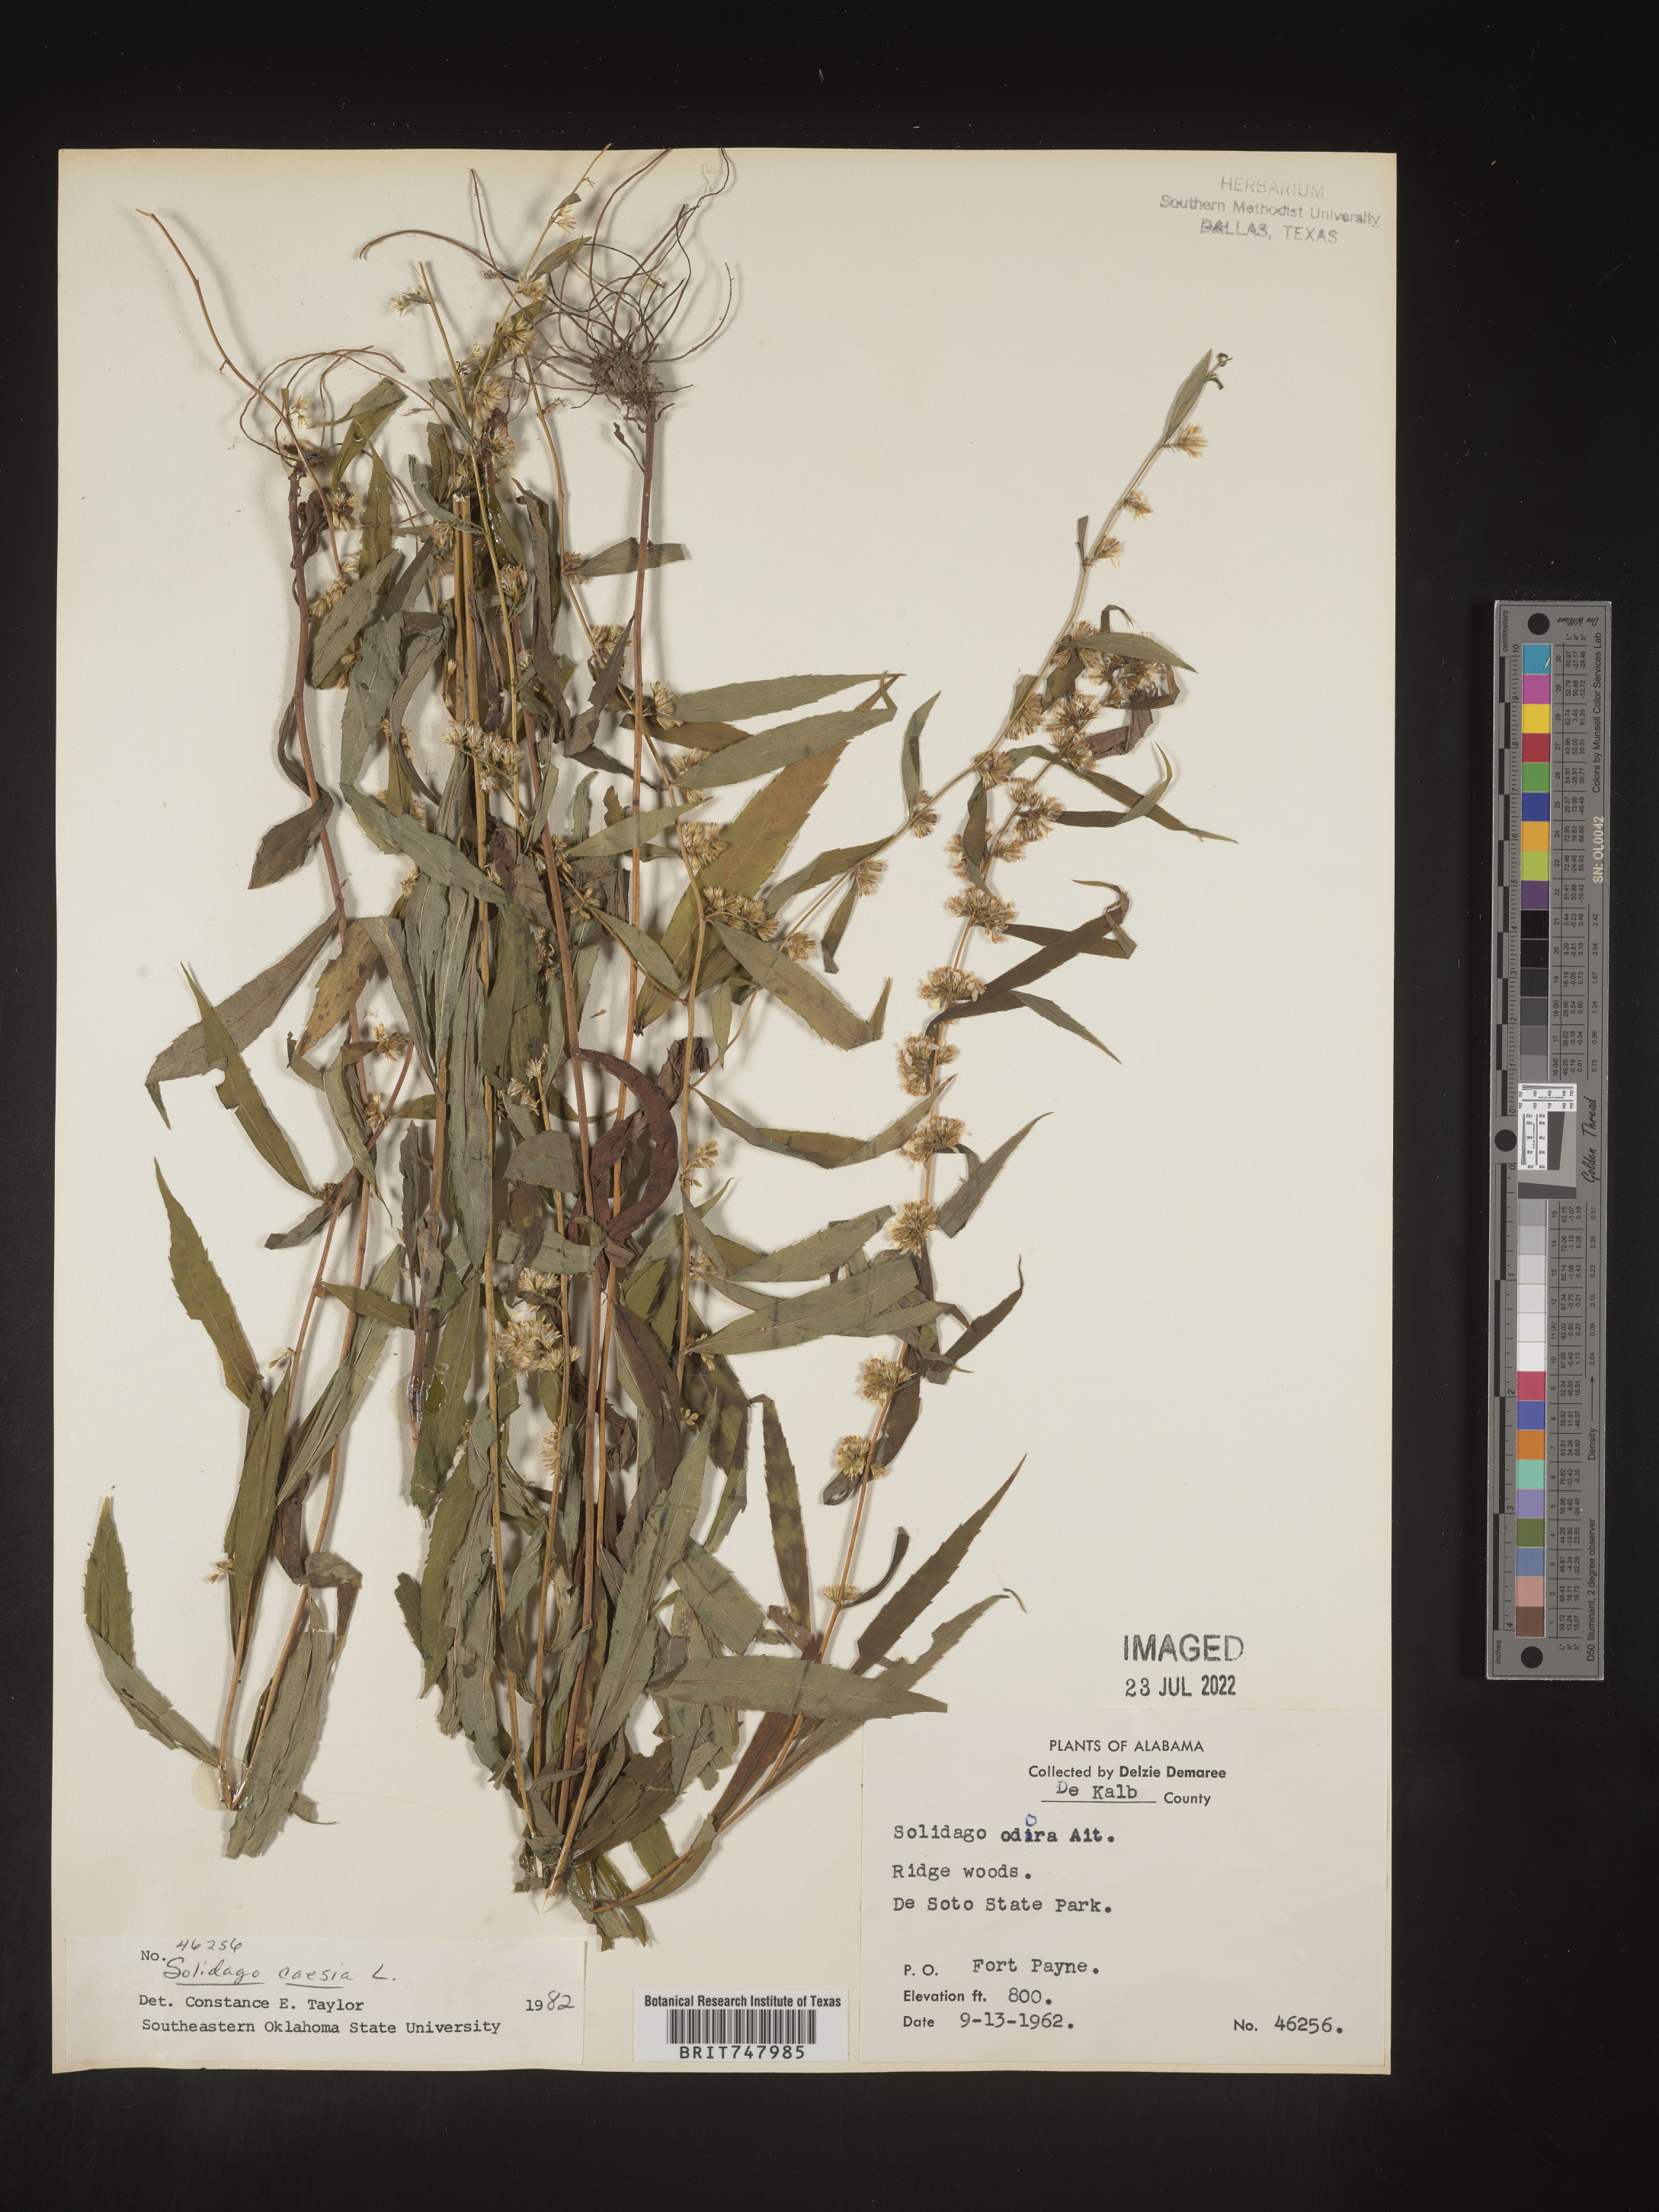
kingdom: Plantae
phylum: Tracheophyta
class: Magnoliopsida
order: Asterales
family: Asteraceae
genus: Solidago
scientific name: Solidago odora
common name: Anise-scented goldenrod
